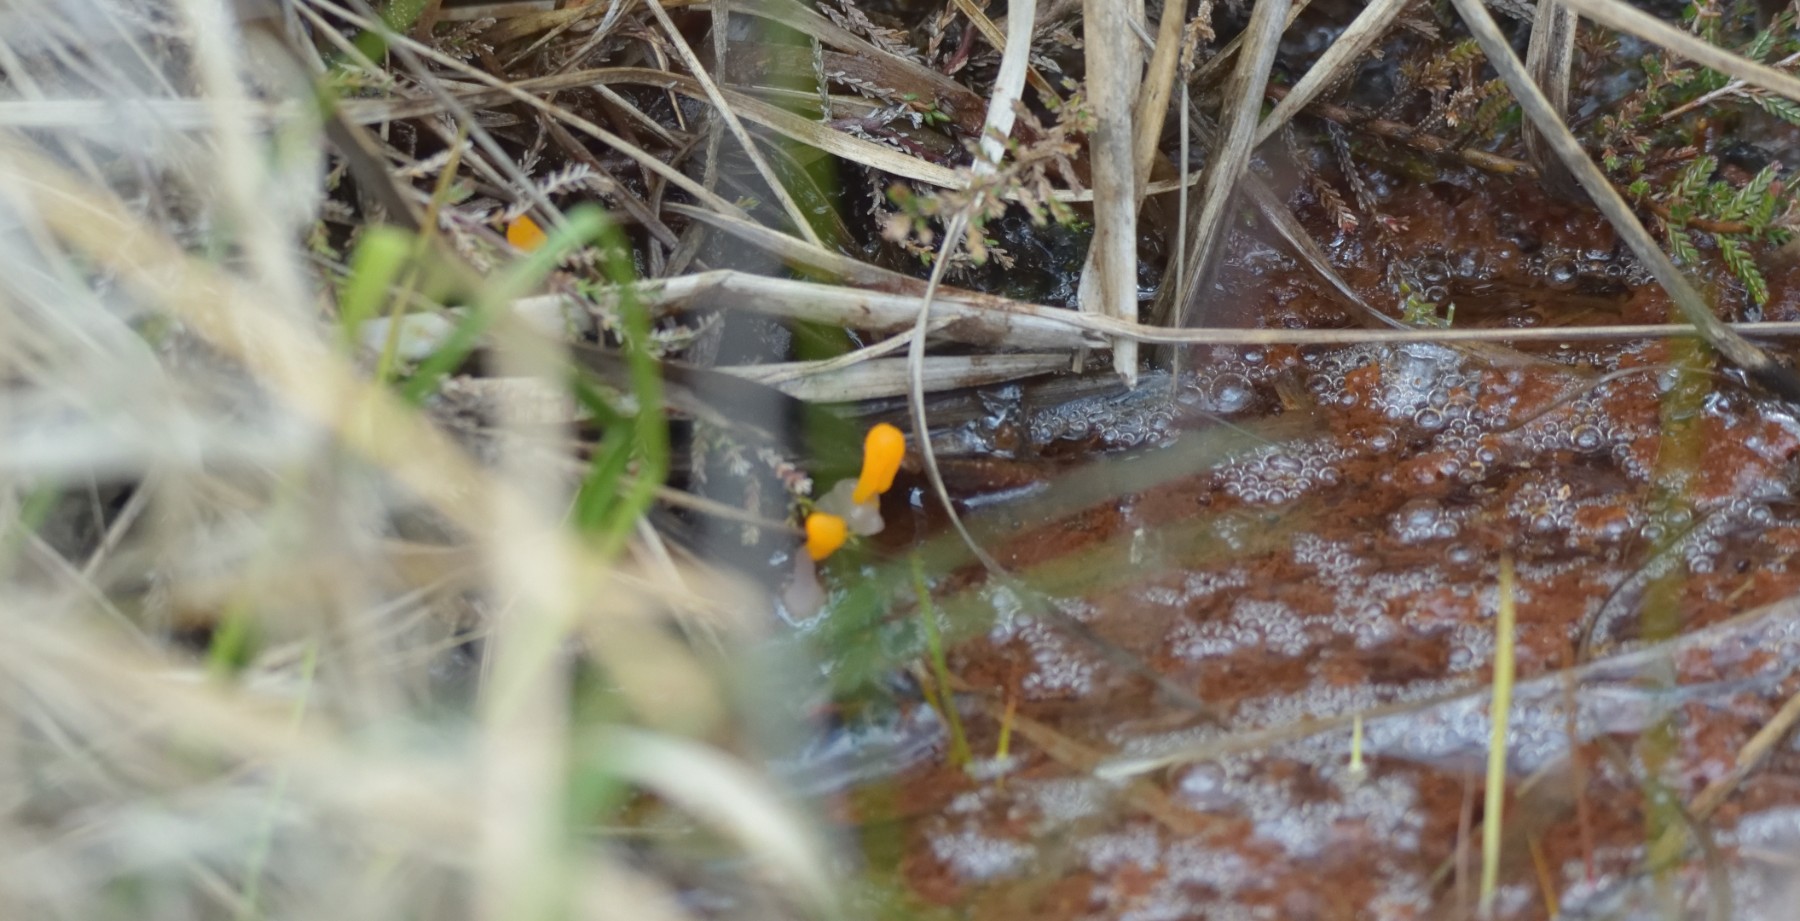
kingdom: Fungi
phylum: Ascomycota
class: Leotiomycetes
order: Helotiales
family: Cenangiaceae
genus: Mitrula
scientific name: Mitrula paludosa
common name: gul nøkketunge
